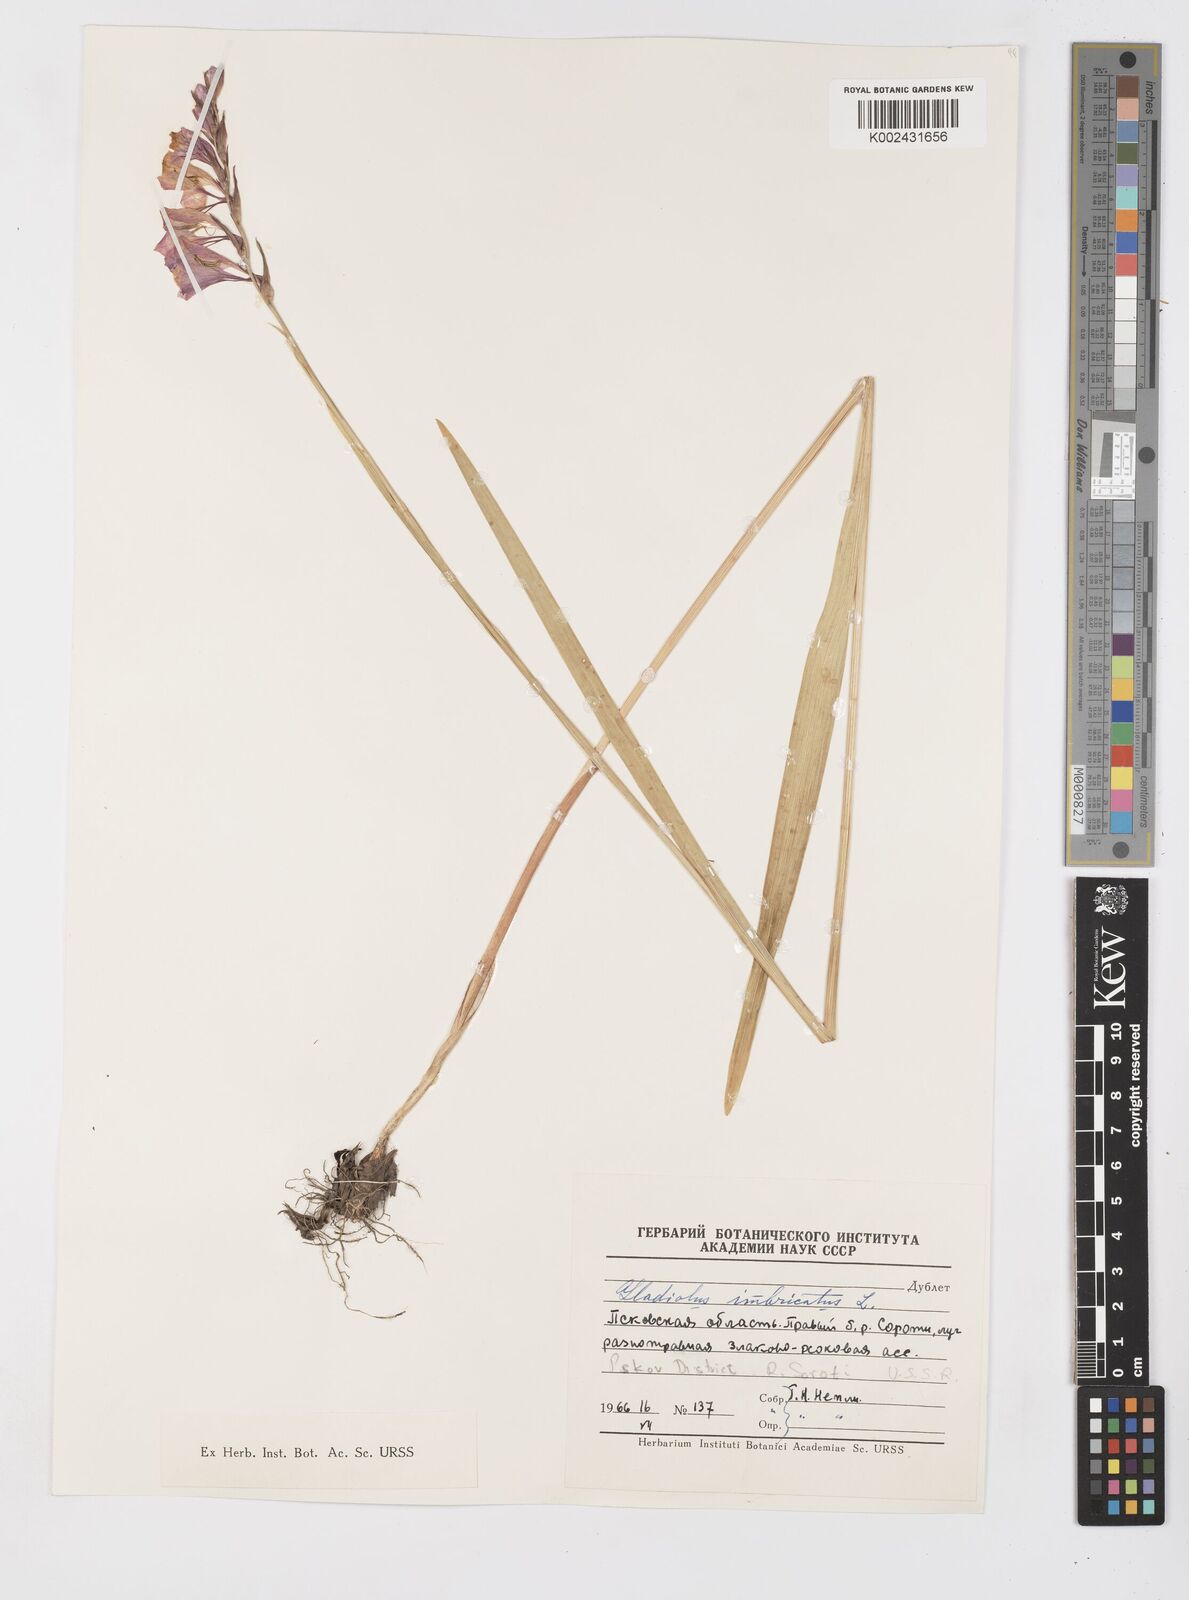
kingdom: Plantae
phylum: Tracheophyta
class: Liliopsida
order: Asparagales
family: Iridaceae
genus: Gladiolus
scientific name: Gladiolus imbricatus
